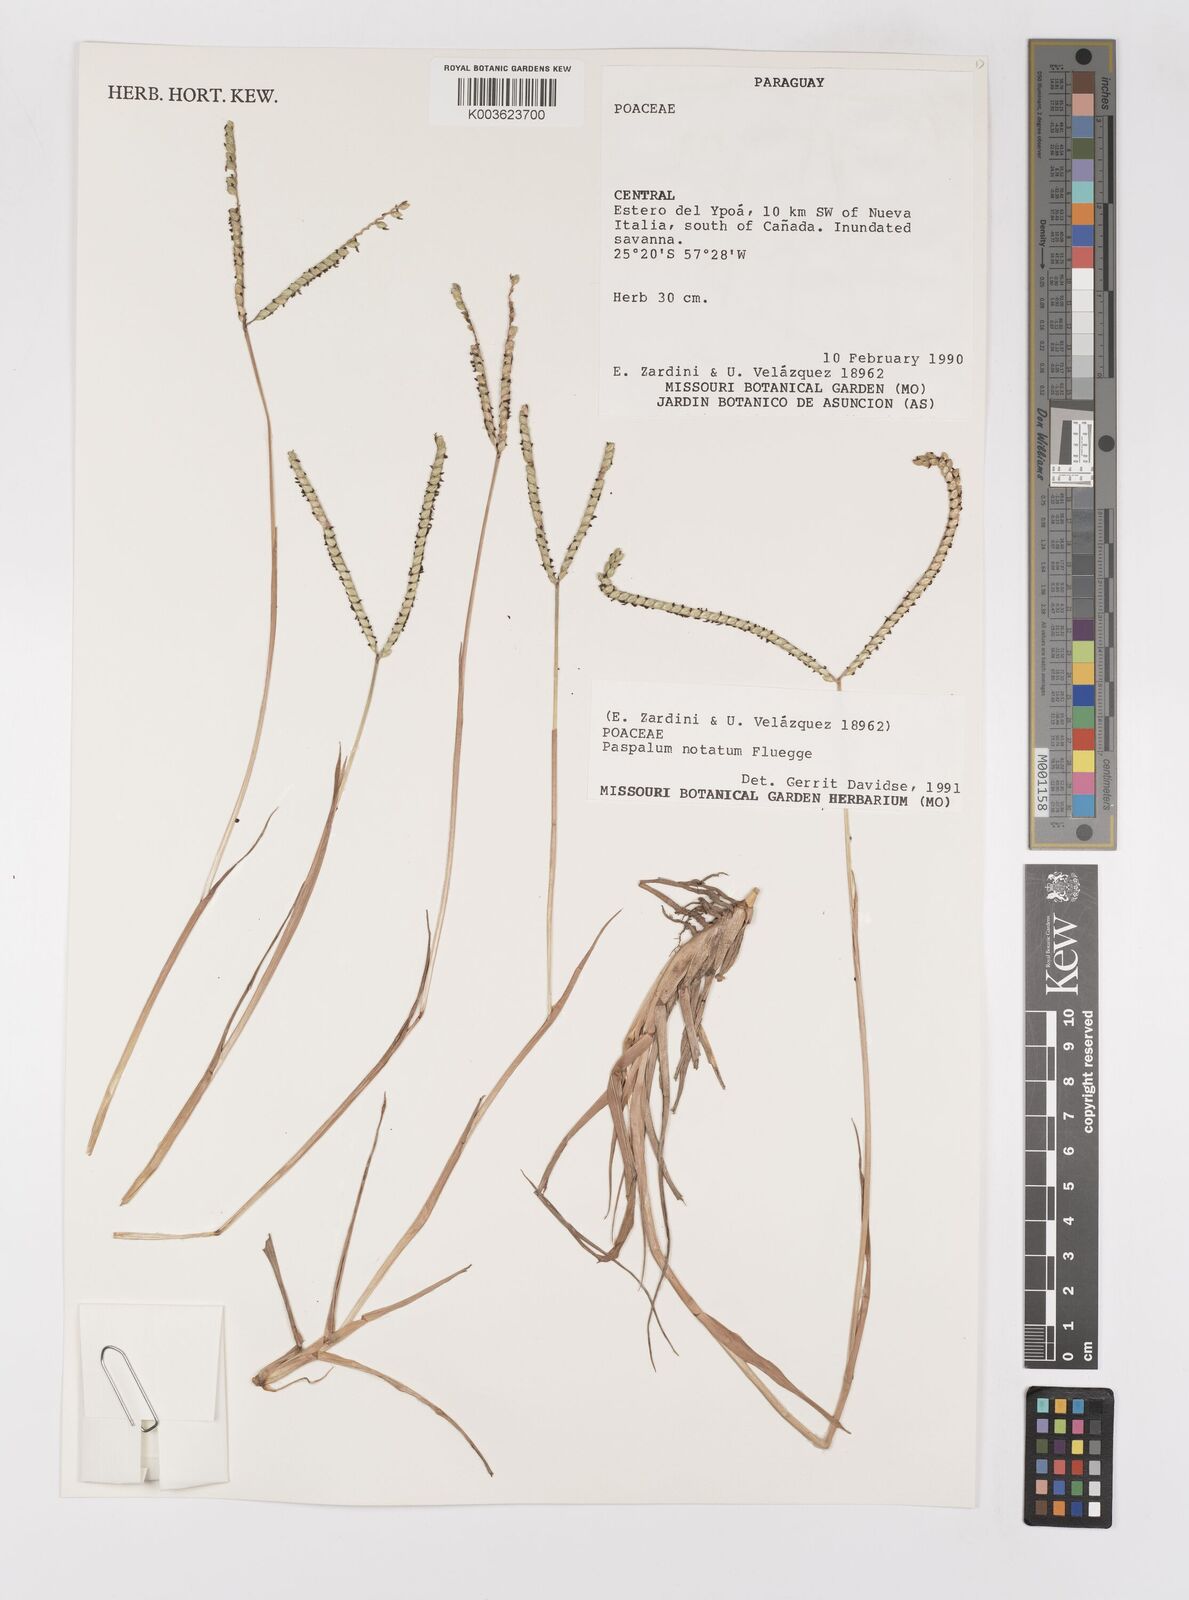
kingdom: Plantae
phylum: Tracheophyta
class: Liliopsida
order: Poales
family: Poaceae
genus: Paspalum
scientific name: Paspalum notatum
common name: Bahiagrass
